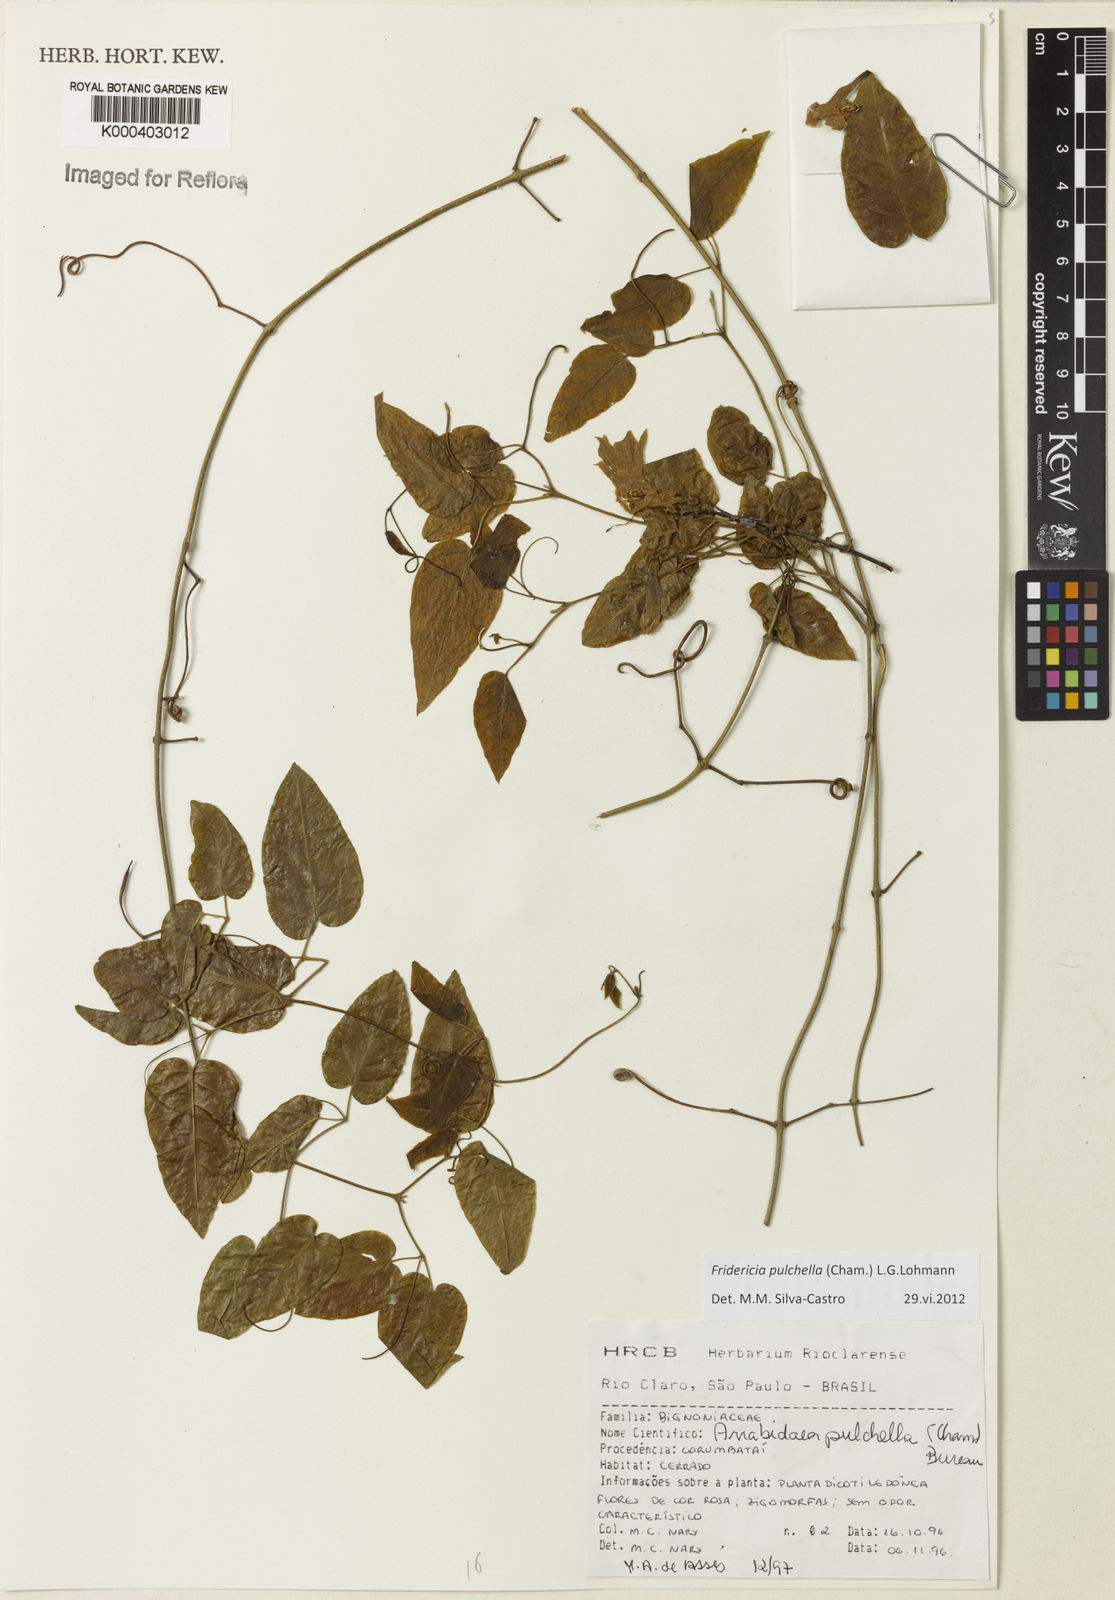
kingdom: Plantae
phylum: Tracheophyta
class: Magnoliopsida
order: Lamiales
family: Bignoniaceae
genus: Fridericia
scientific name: Fridericia
